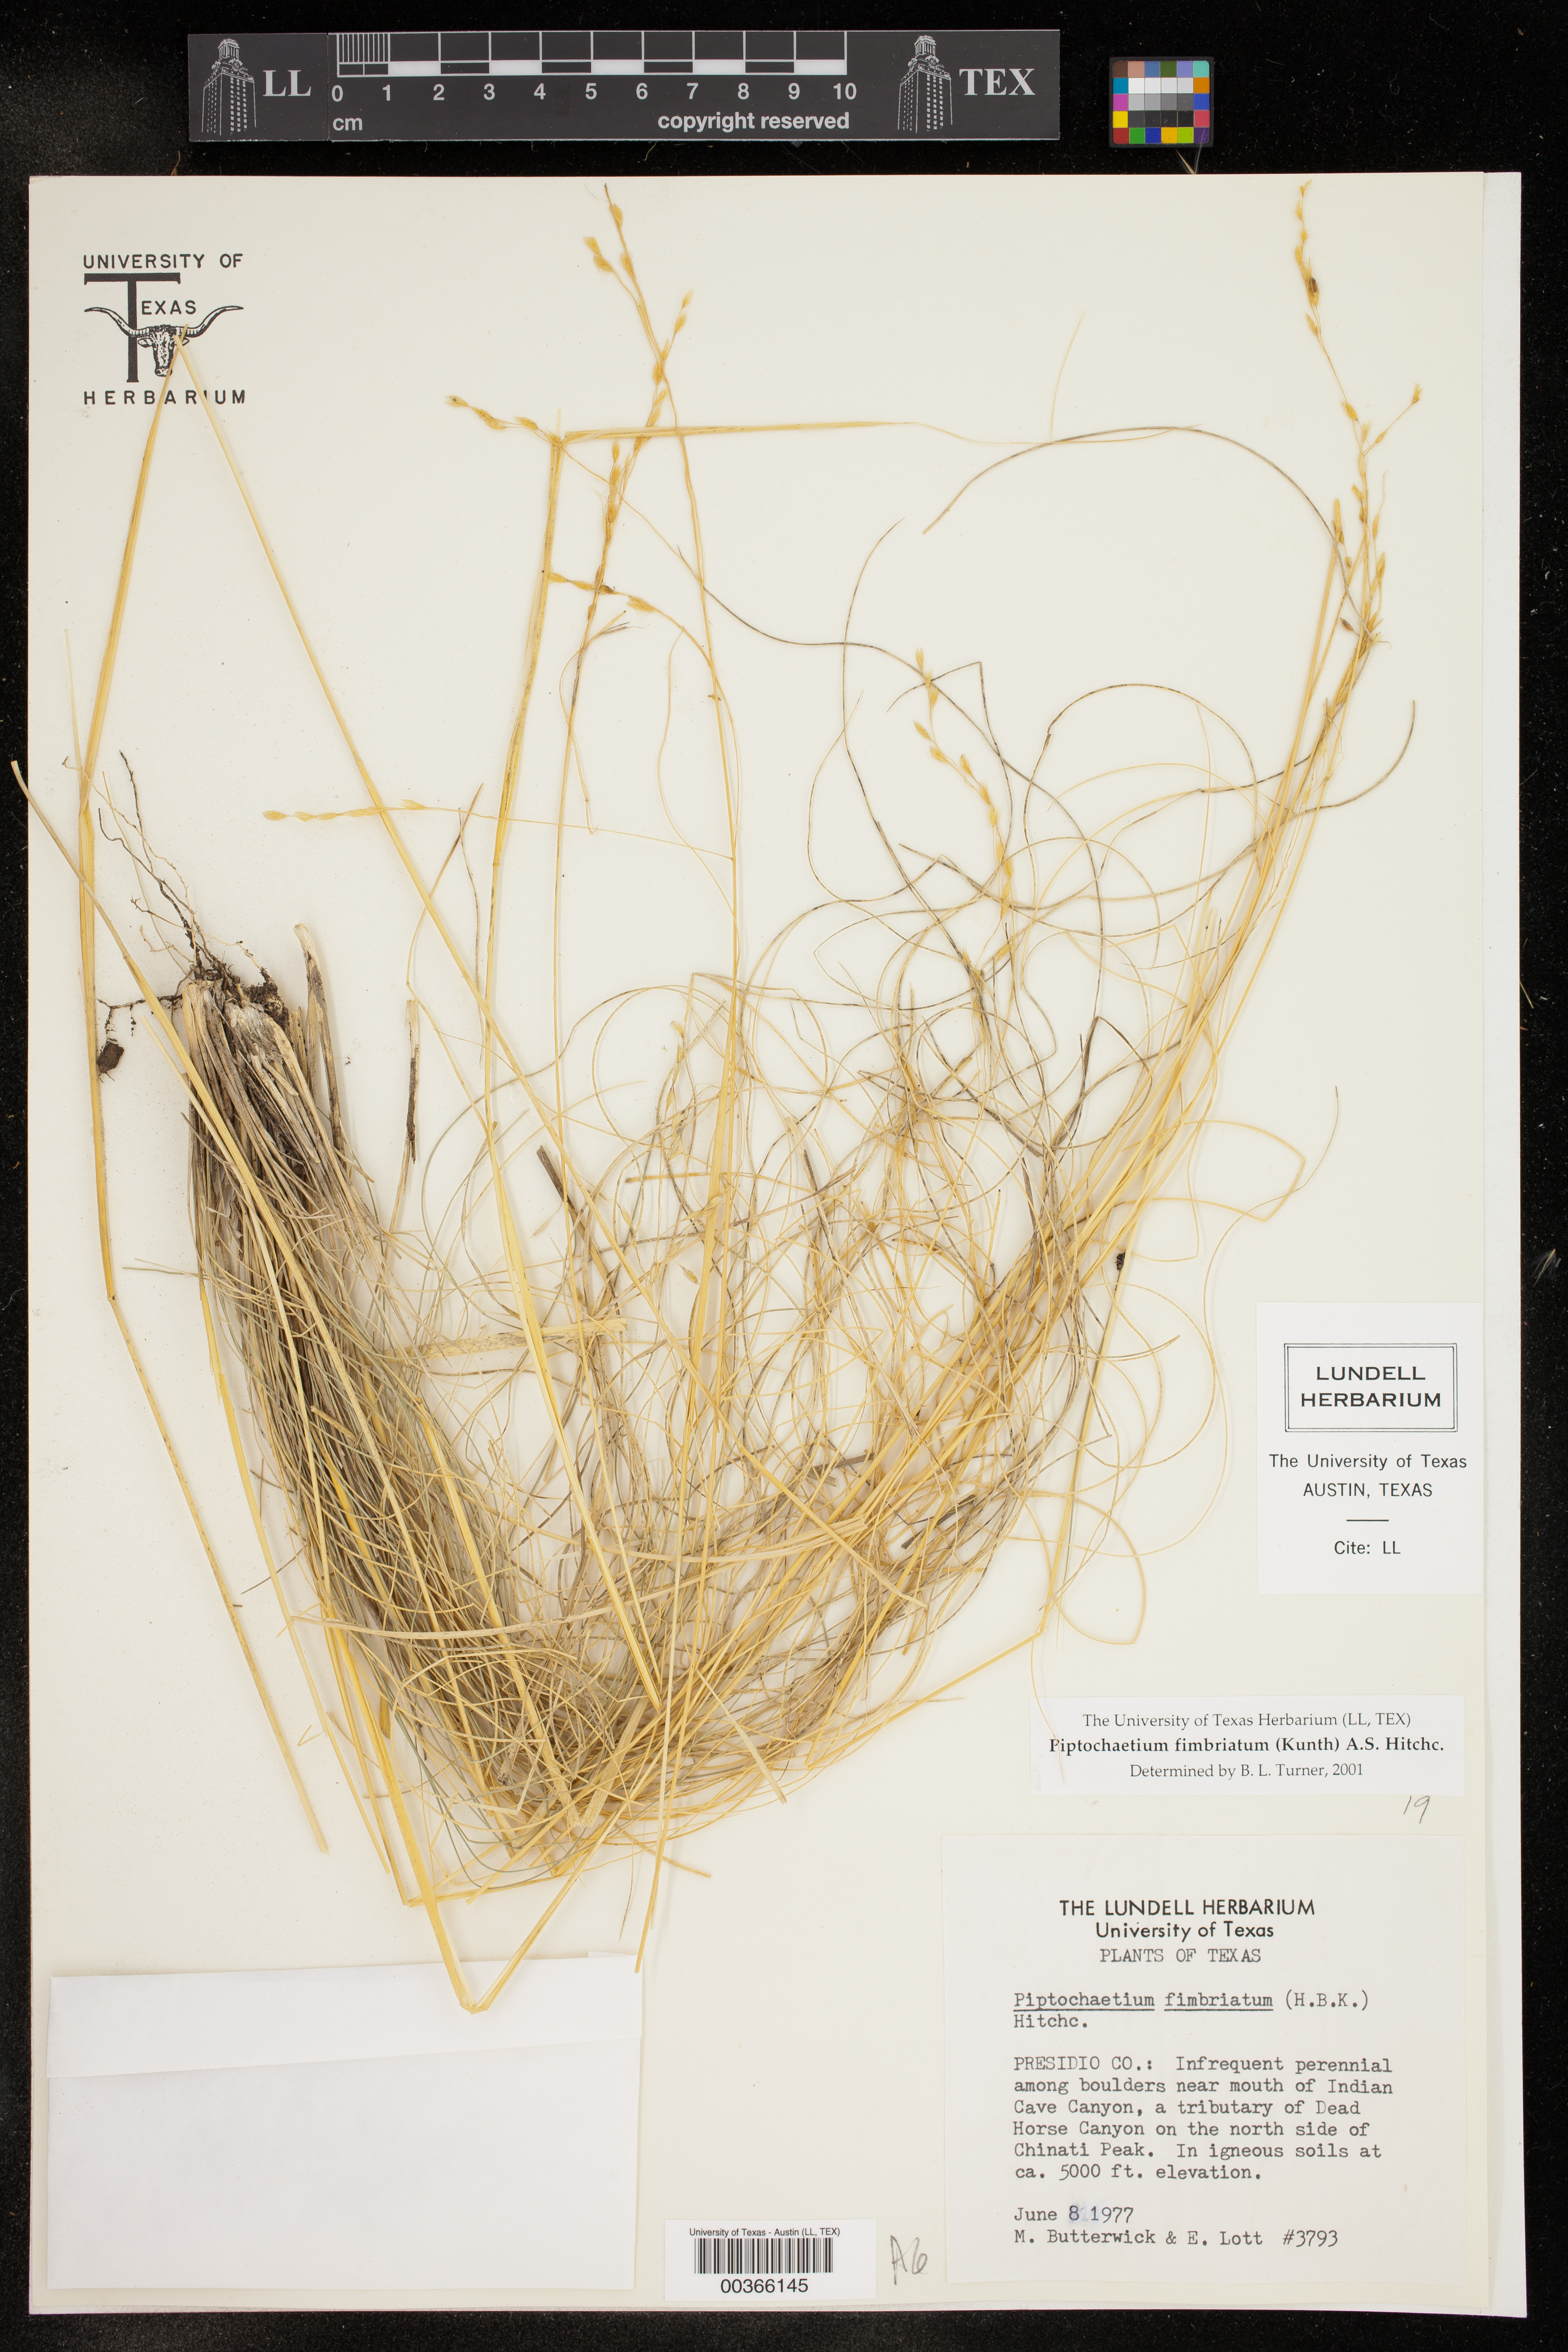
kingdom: Plantae
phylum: Tracheophyta
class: Liliopsida
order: Poales
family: Poaceae
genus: Piptochaetium
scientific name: Piptochaetium fimbriatum
